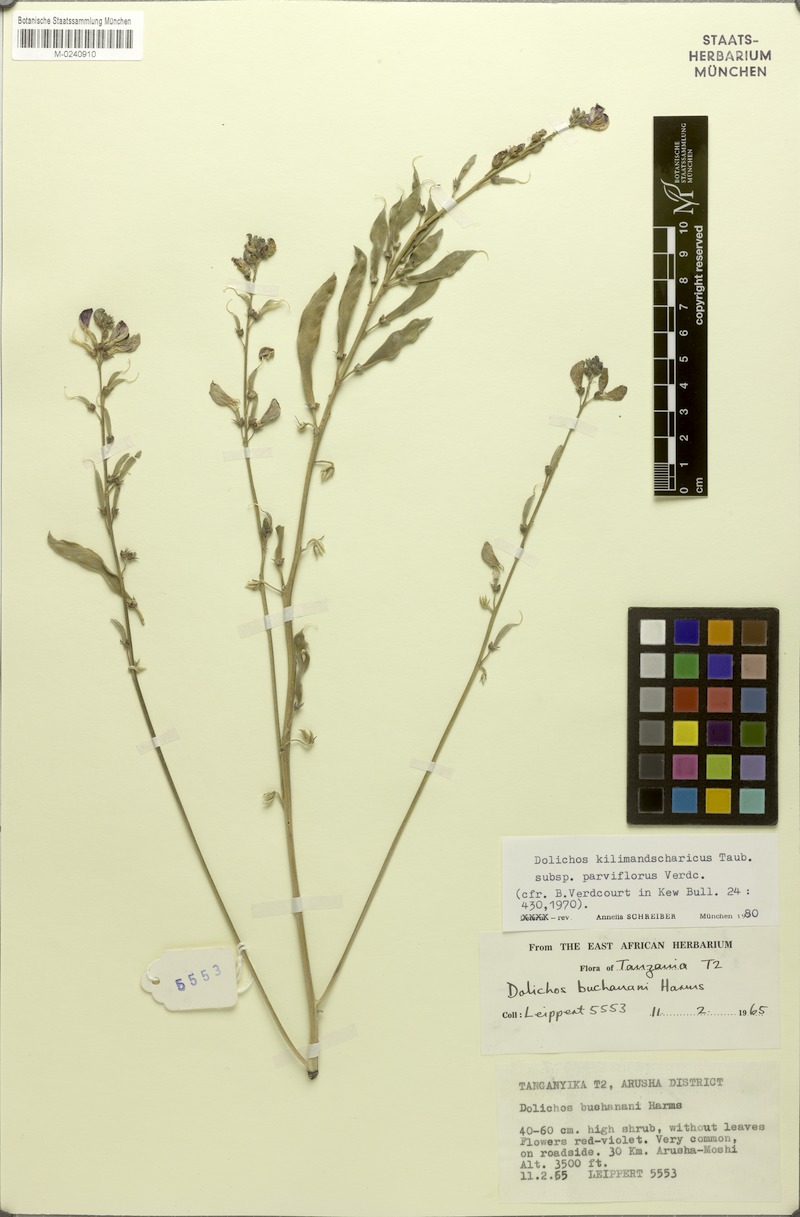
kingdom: Plantae
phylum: Tracheophyta
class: Magnoliopsida
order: Fabales
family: Fabaceae
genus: Dolichos
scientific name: Dolichos kilimandscharicus
